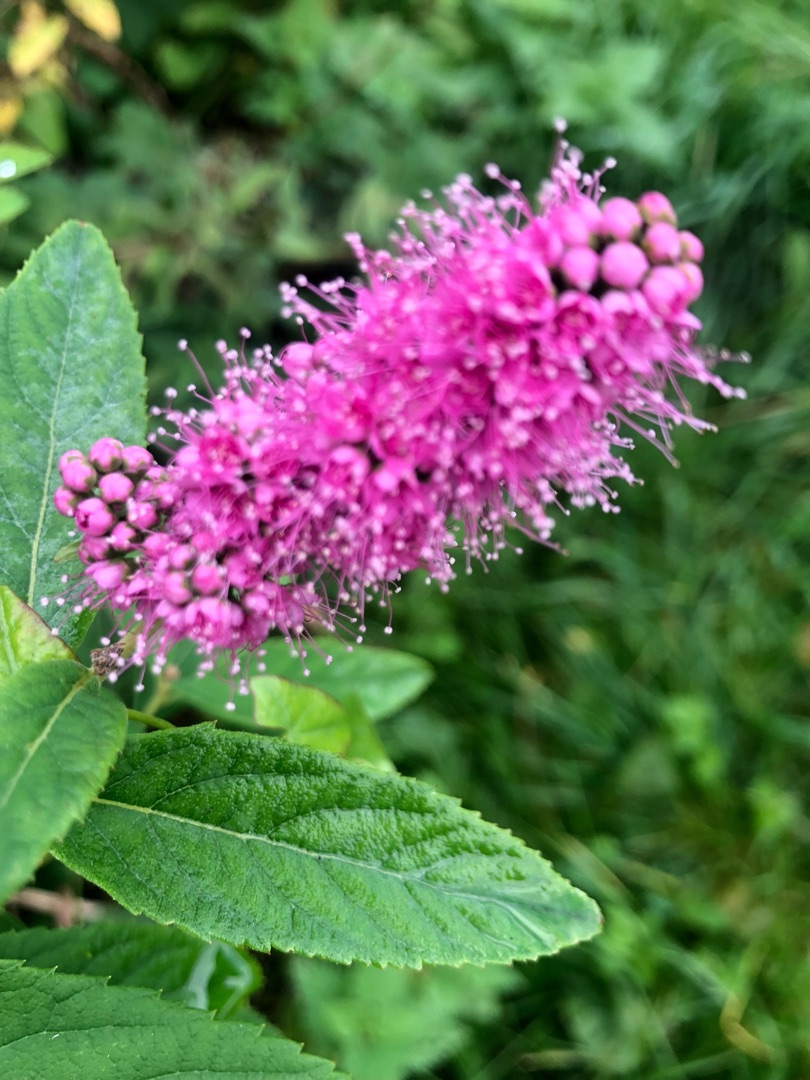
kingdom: Plantae
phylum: Tracheophyta
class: Magnoliopsida
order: Rosales
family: Rosaceae
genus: Spiraea
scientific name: Spiraea
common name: Spiræaslægten
